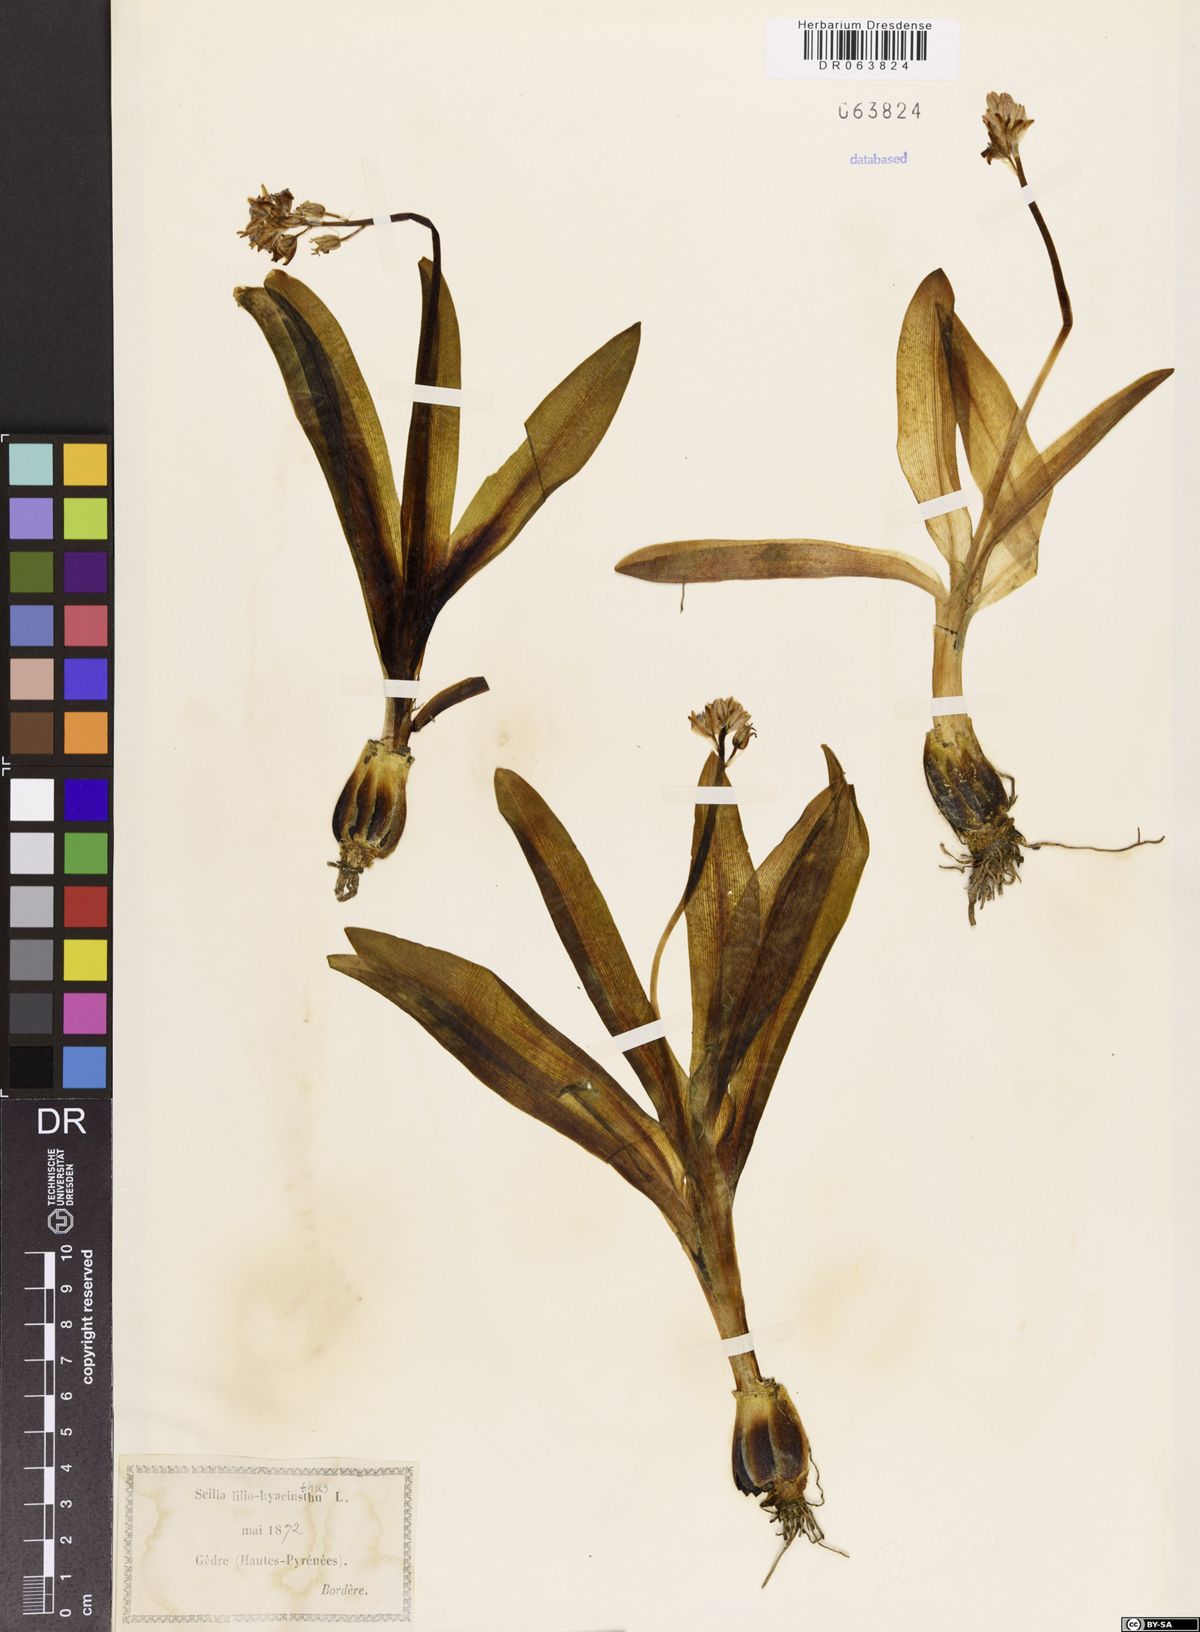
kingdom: Plantae
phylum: Tracheophyta
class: Liliopsida
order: Asparagales
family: Asparagaceae
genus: Scilla
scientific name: Scilla lilio-hyacinthus
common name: Pyrenean squill
